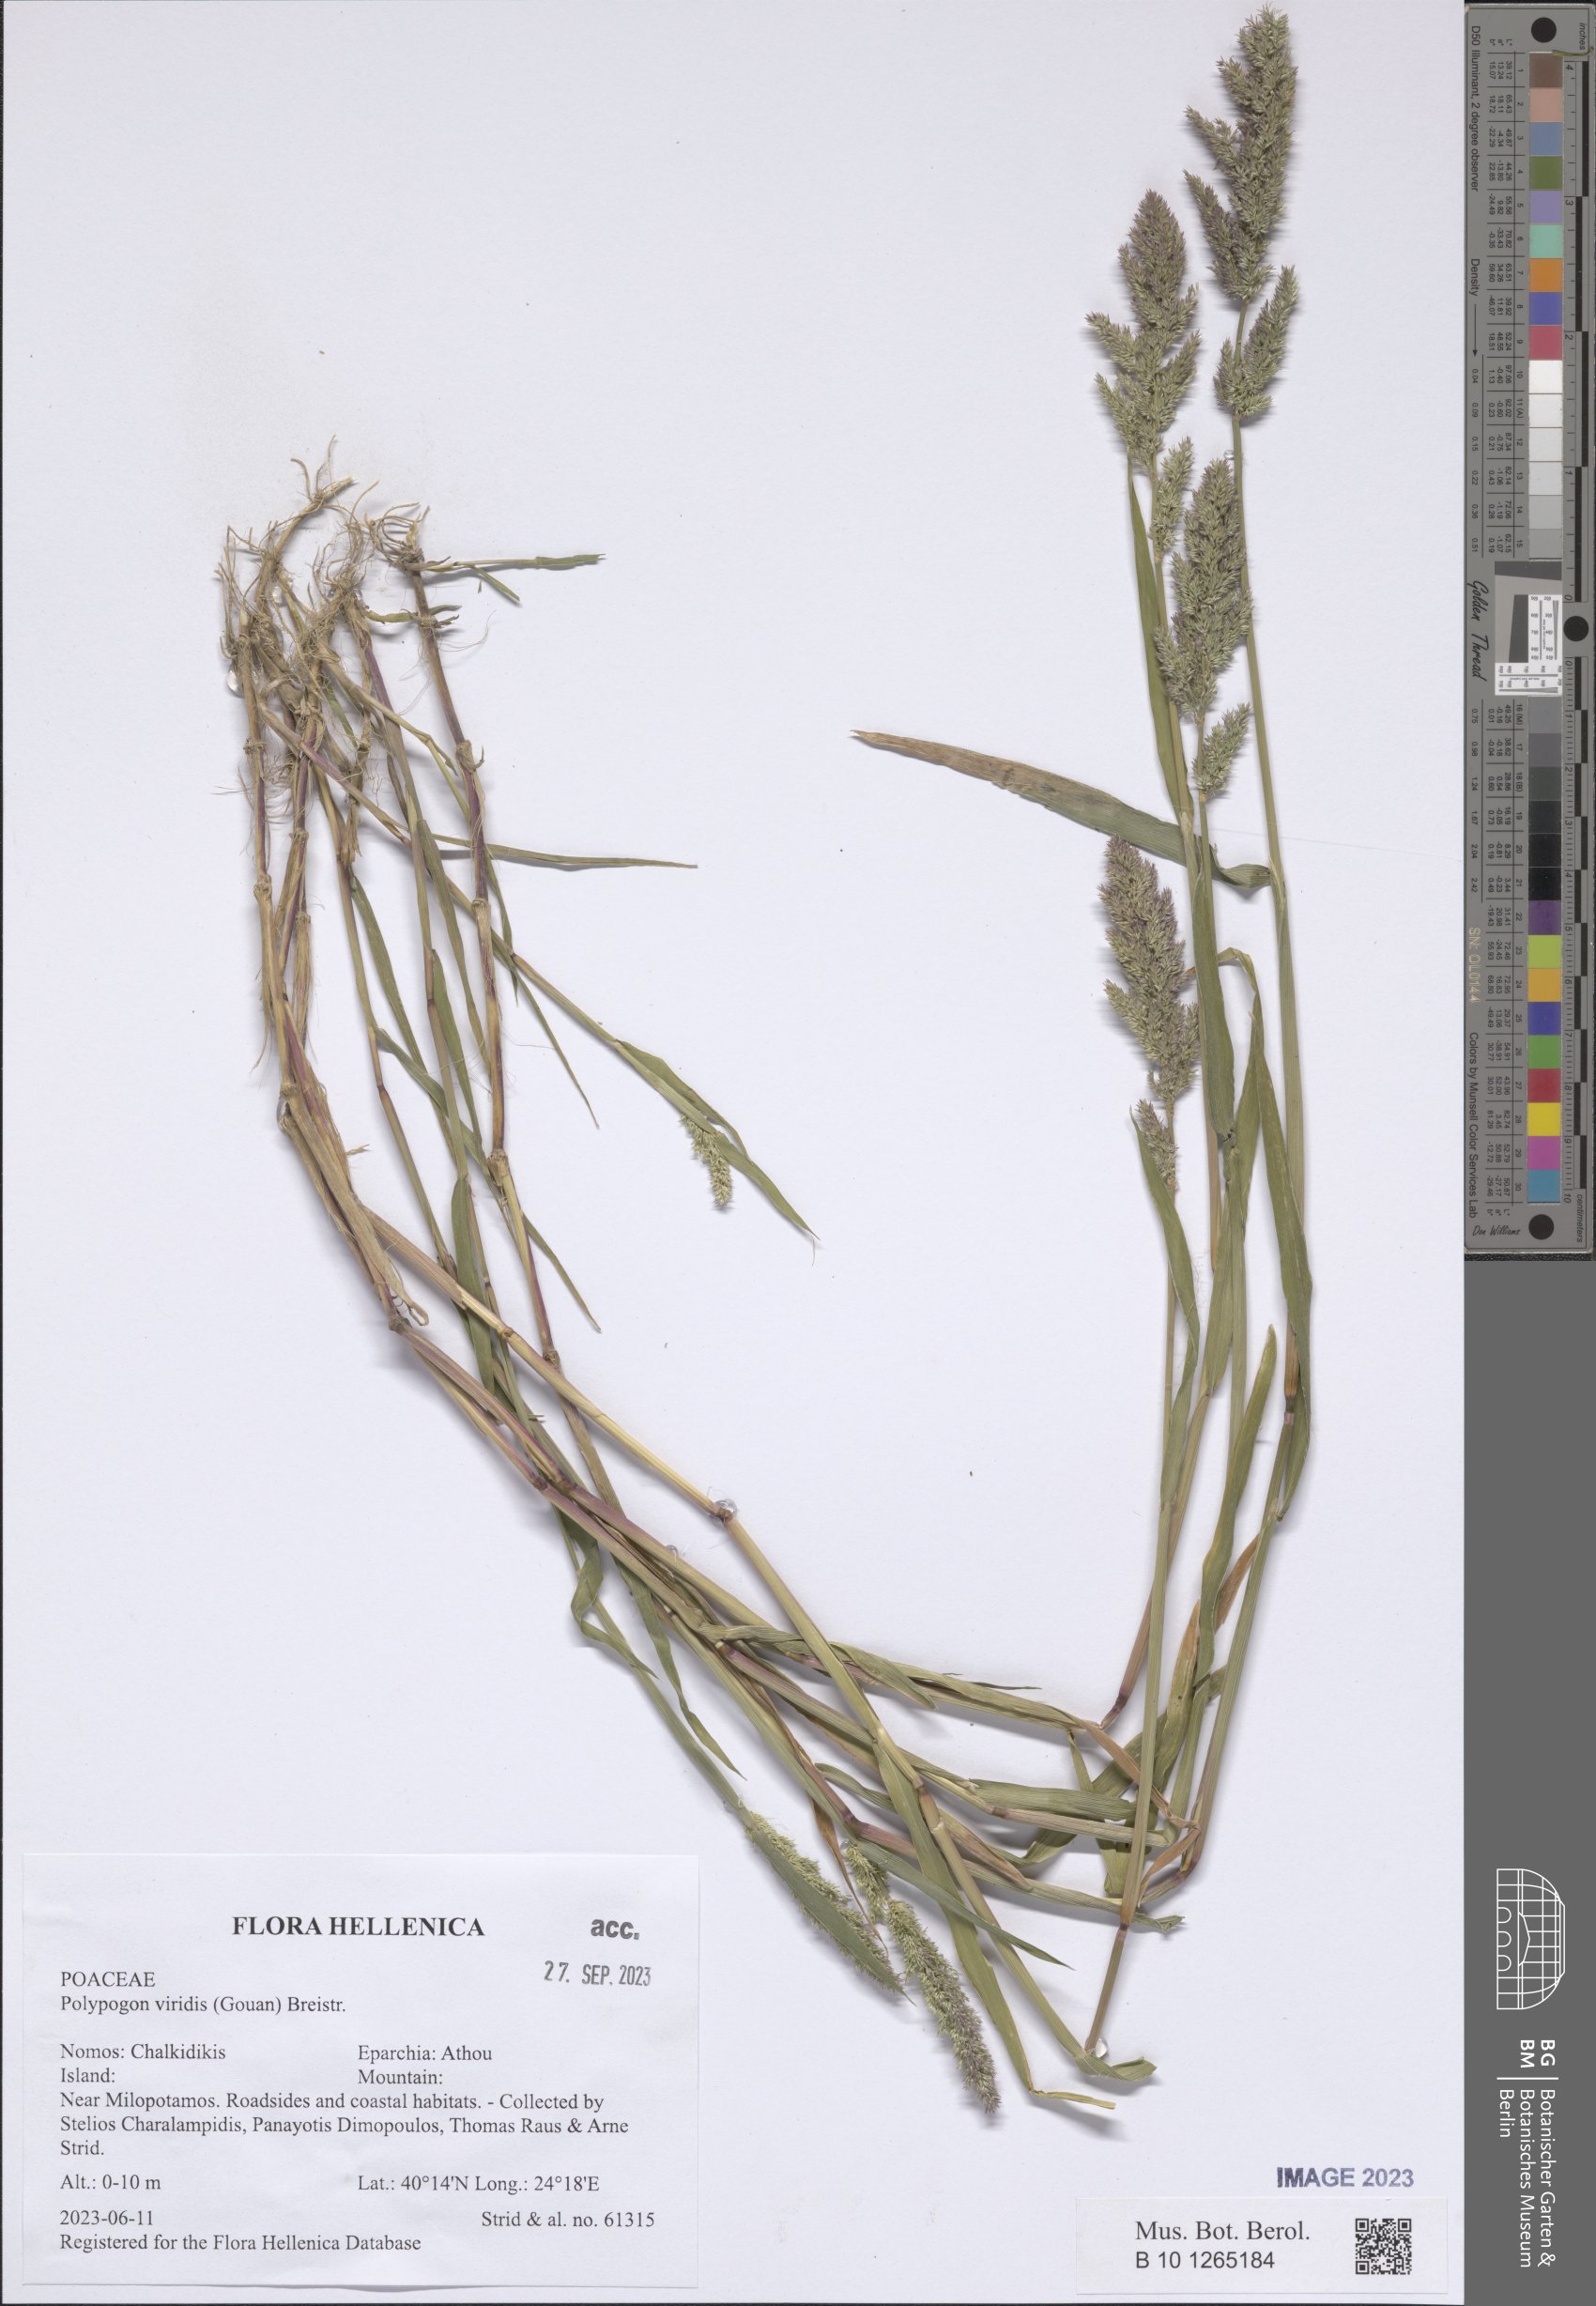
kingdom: Plantae
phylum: Tracheophyta
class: Liliopsida
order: Poales
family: Poaceae
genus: Polypogon
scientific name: Polypogon viridis
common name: Water bent
